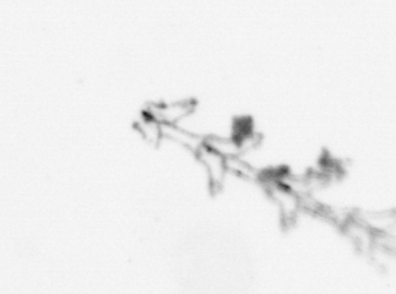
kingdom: Animalia
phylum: Cnidaria
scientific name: Cnidaria
